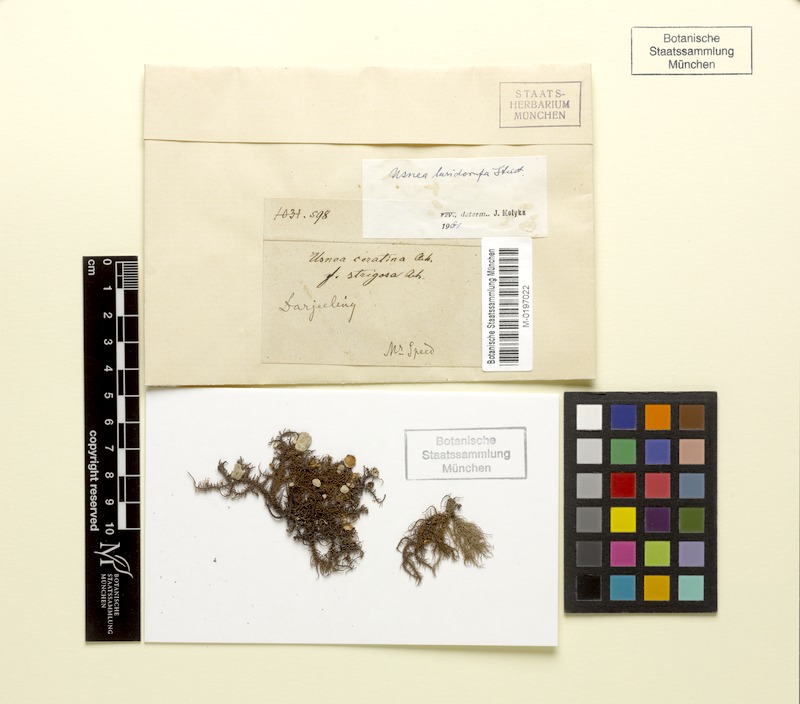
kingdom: Fungi
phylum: Ascomycota
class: Lecanoromycetes
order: Lecanorales
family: Parmeliaceae
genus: Usnea
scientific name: Usnea luridorufa
